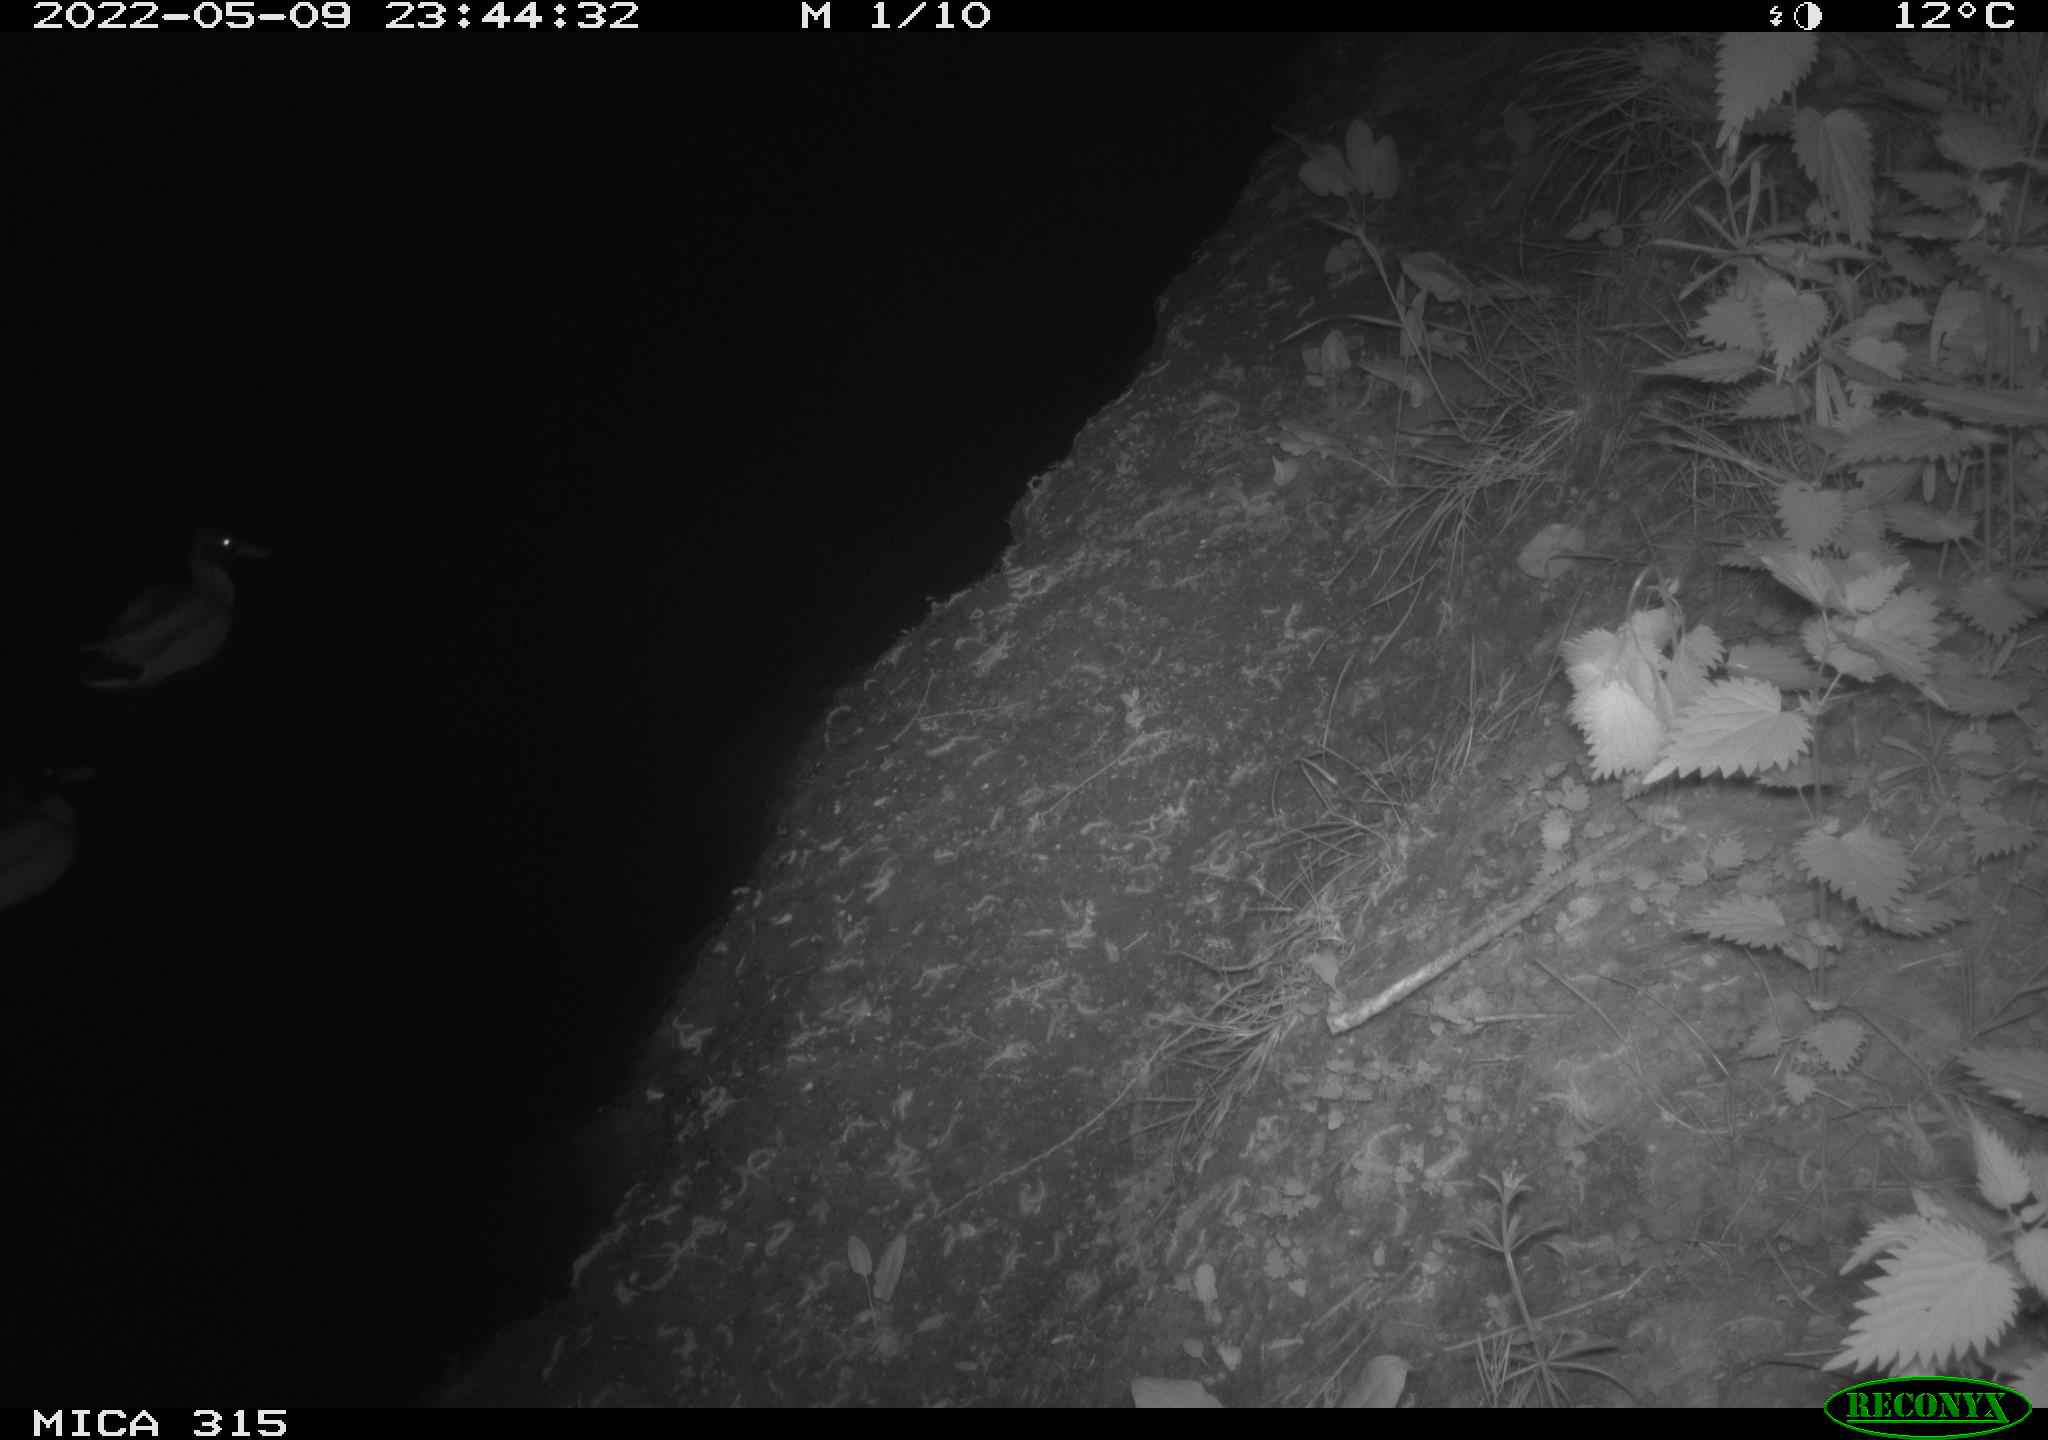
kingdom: Animalia
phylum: Chordata
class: Aves
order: Anseriformes
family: Anatidae
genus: Anas
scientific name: Anas platyrhynchos
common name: Mallard
